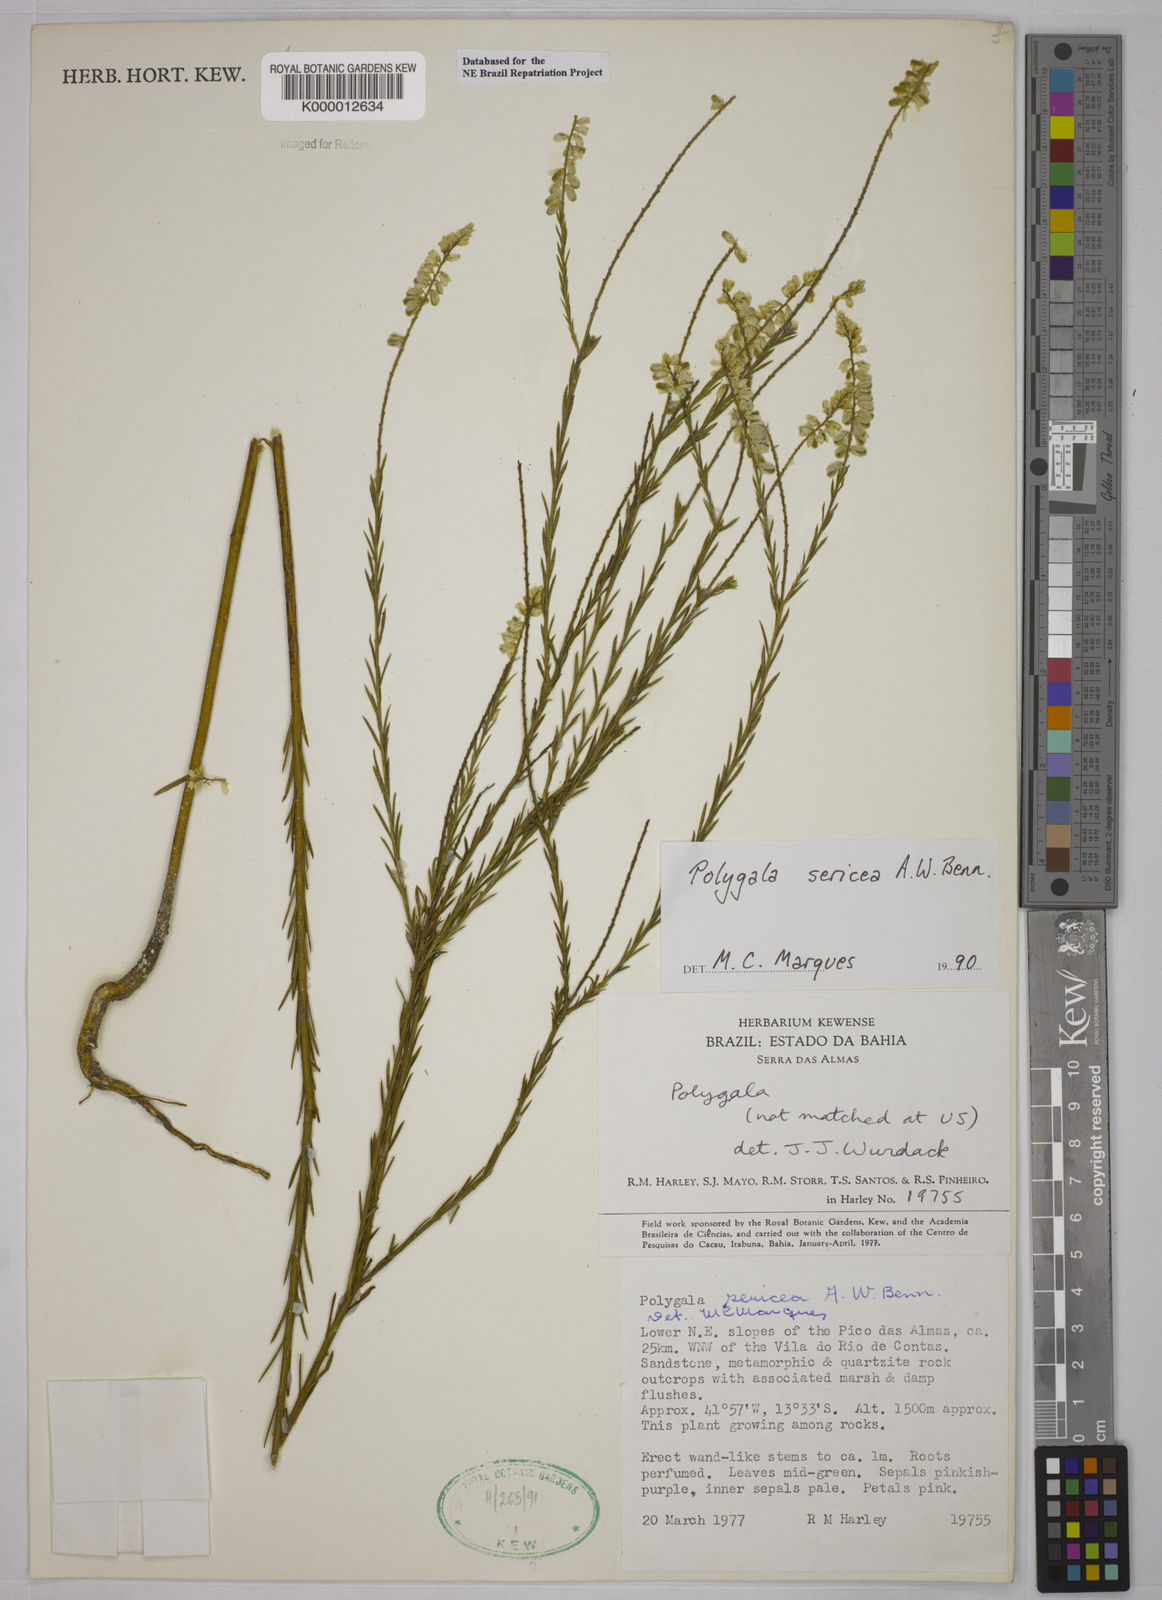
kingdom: Plantae
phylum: Tracheophyta
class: Magnoliopsida
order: Fabales
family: Polygalaceae
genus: Polygala
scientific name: Polygala sericea
